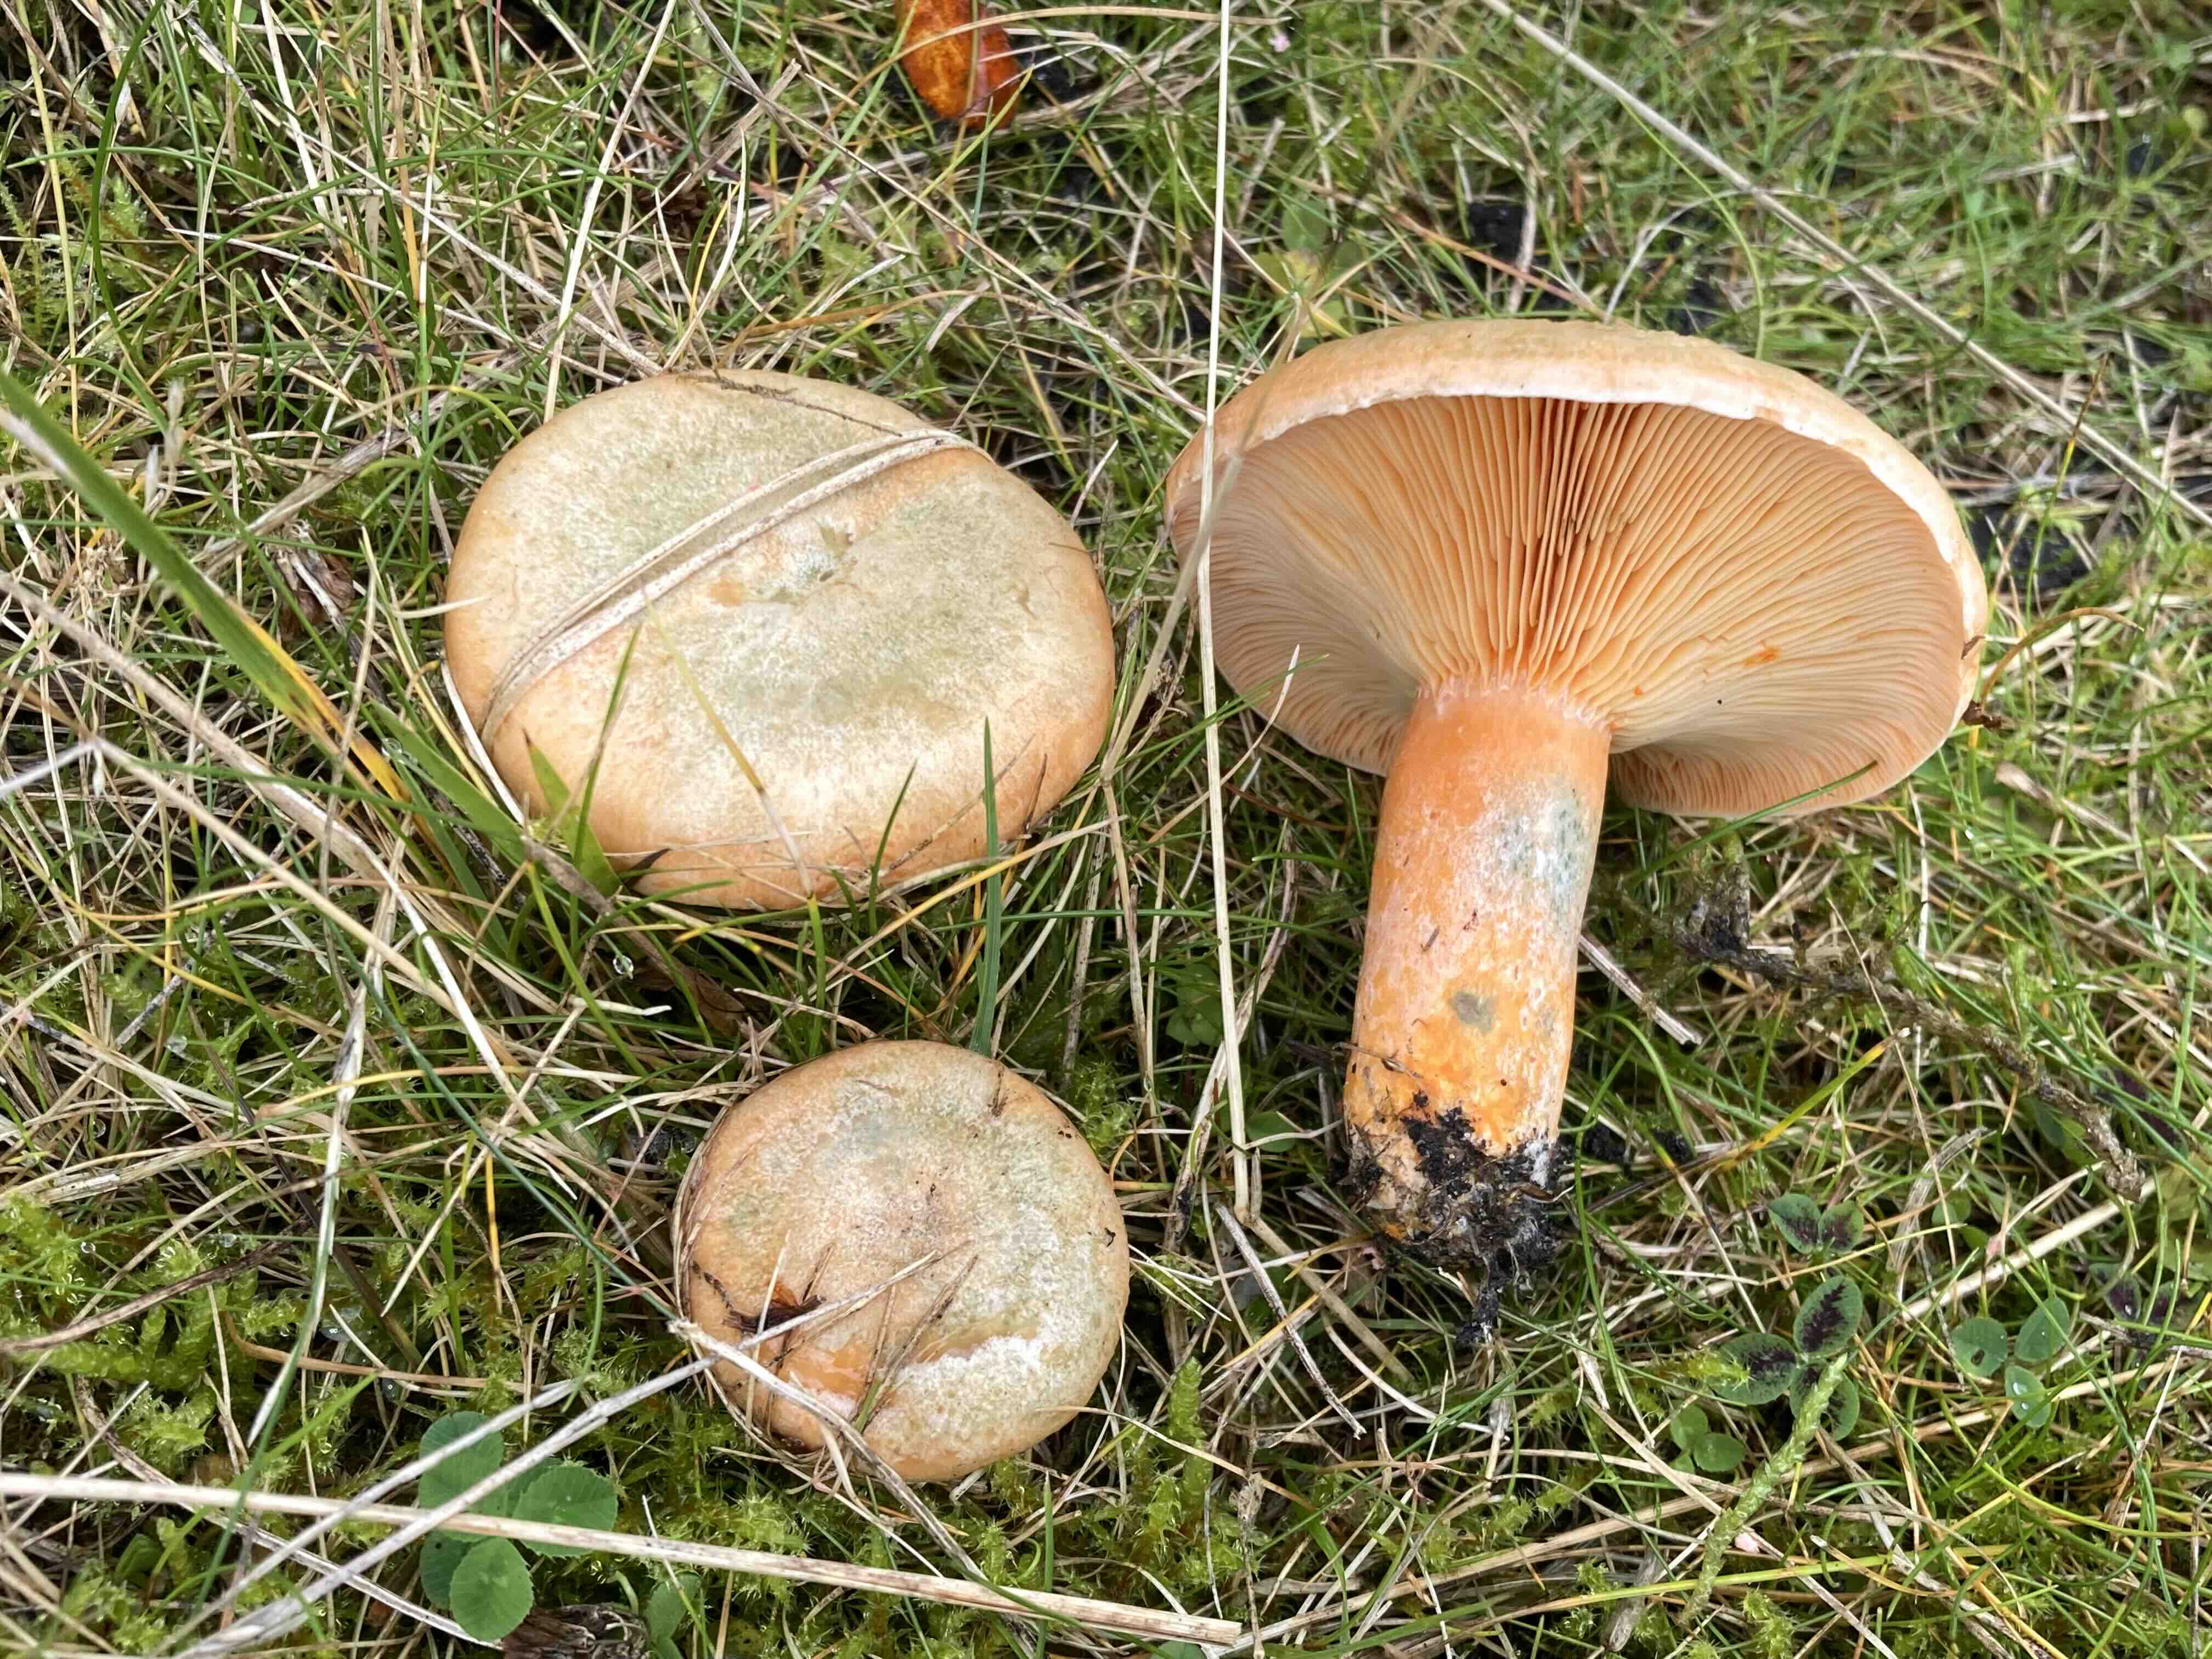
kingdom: Fungi
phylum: Basidiomycota
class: Agaricomycetes
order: Russulales
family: Russulaceae
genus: Lactarius
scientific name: Lactarius deterrimus
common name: gran-mælkehat
